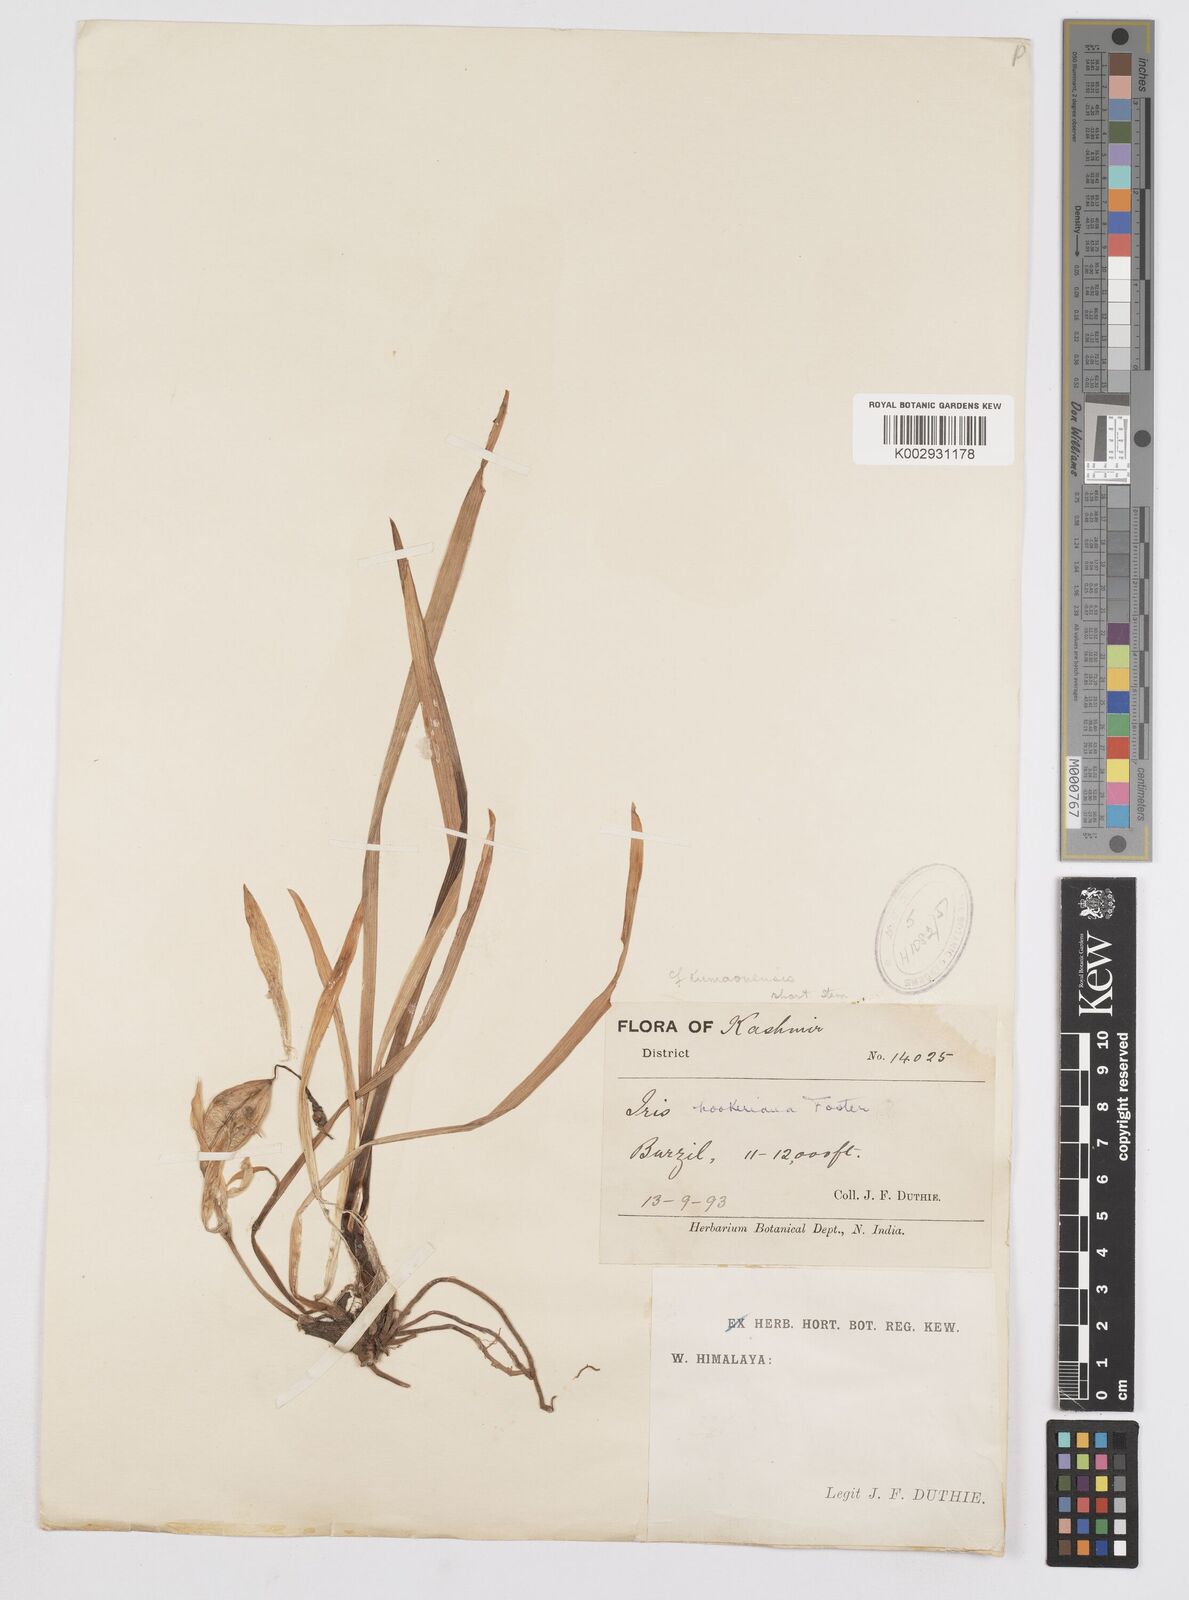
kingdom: Plantae
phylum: Tracheophyta
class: Liliopsida
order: Asparagales
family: Iridaceae
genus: Iris
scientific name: Iris kemaonensis
